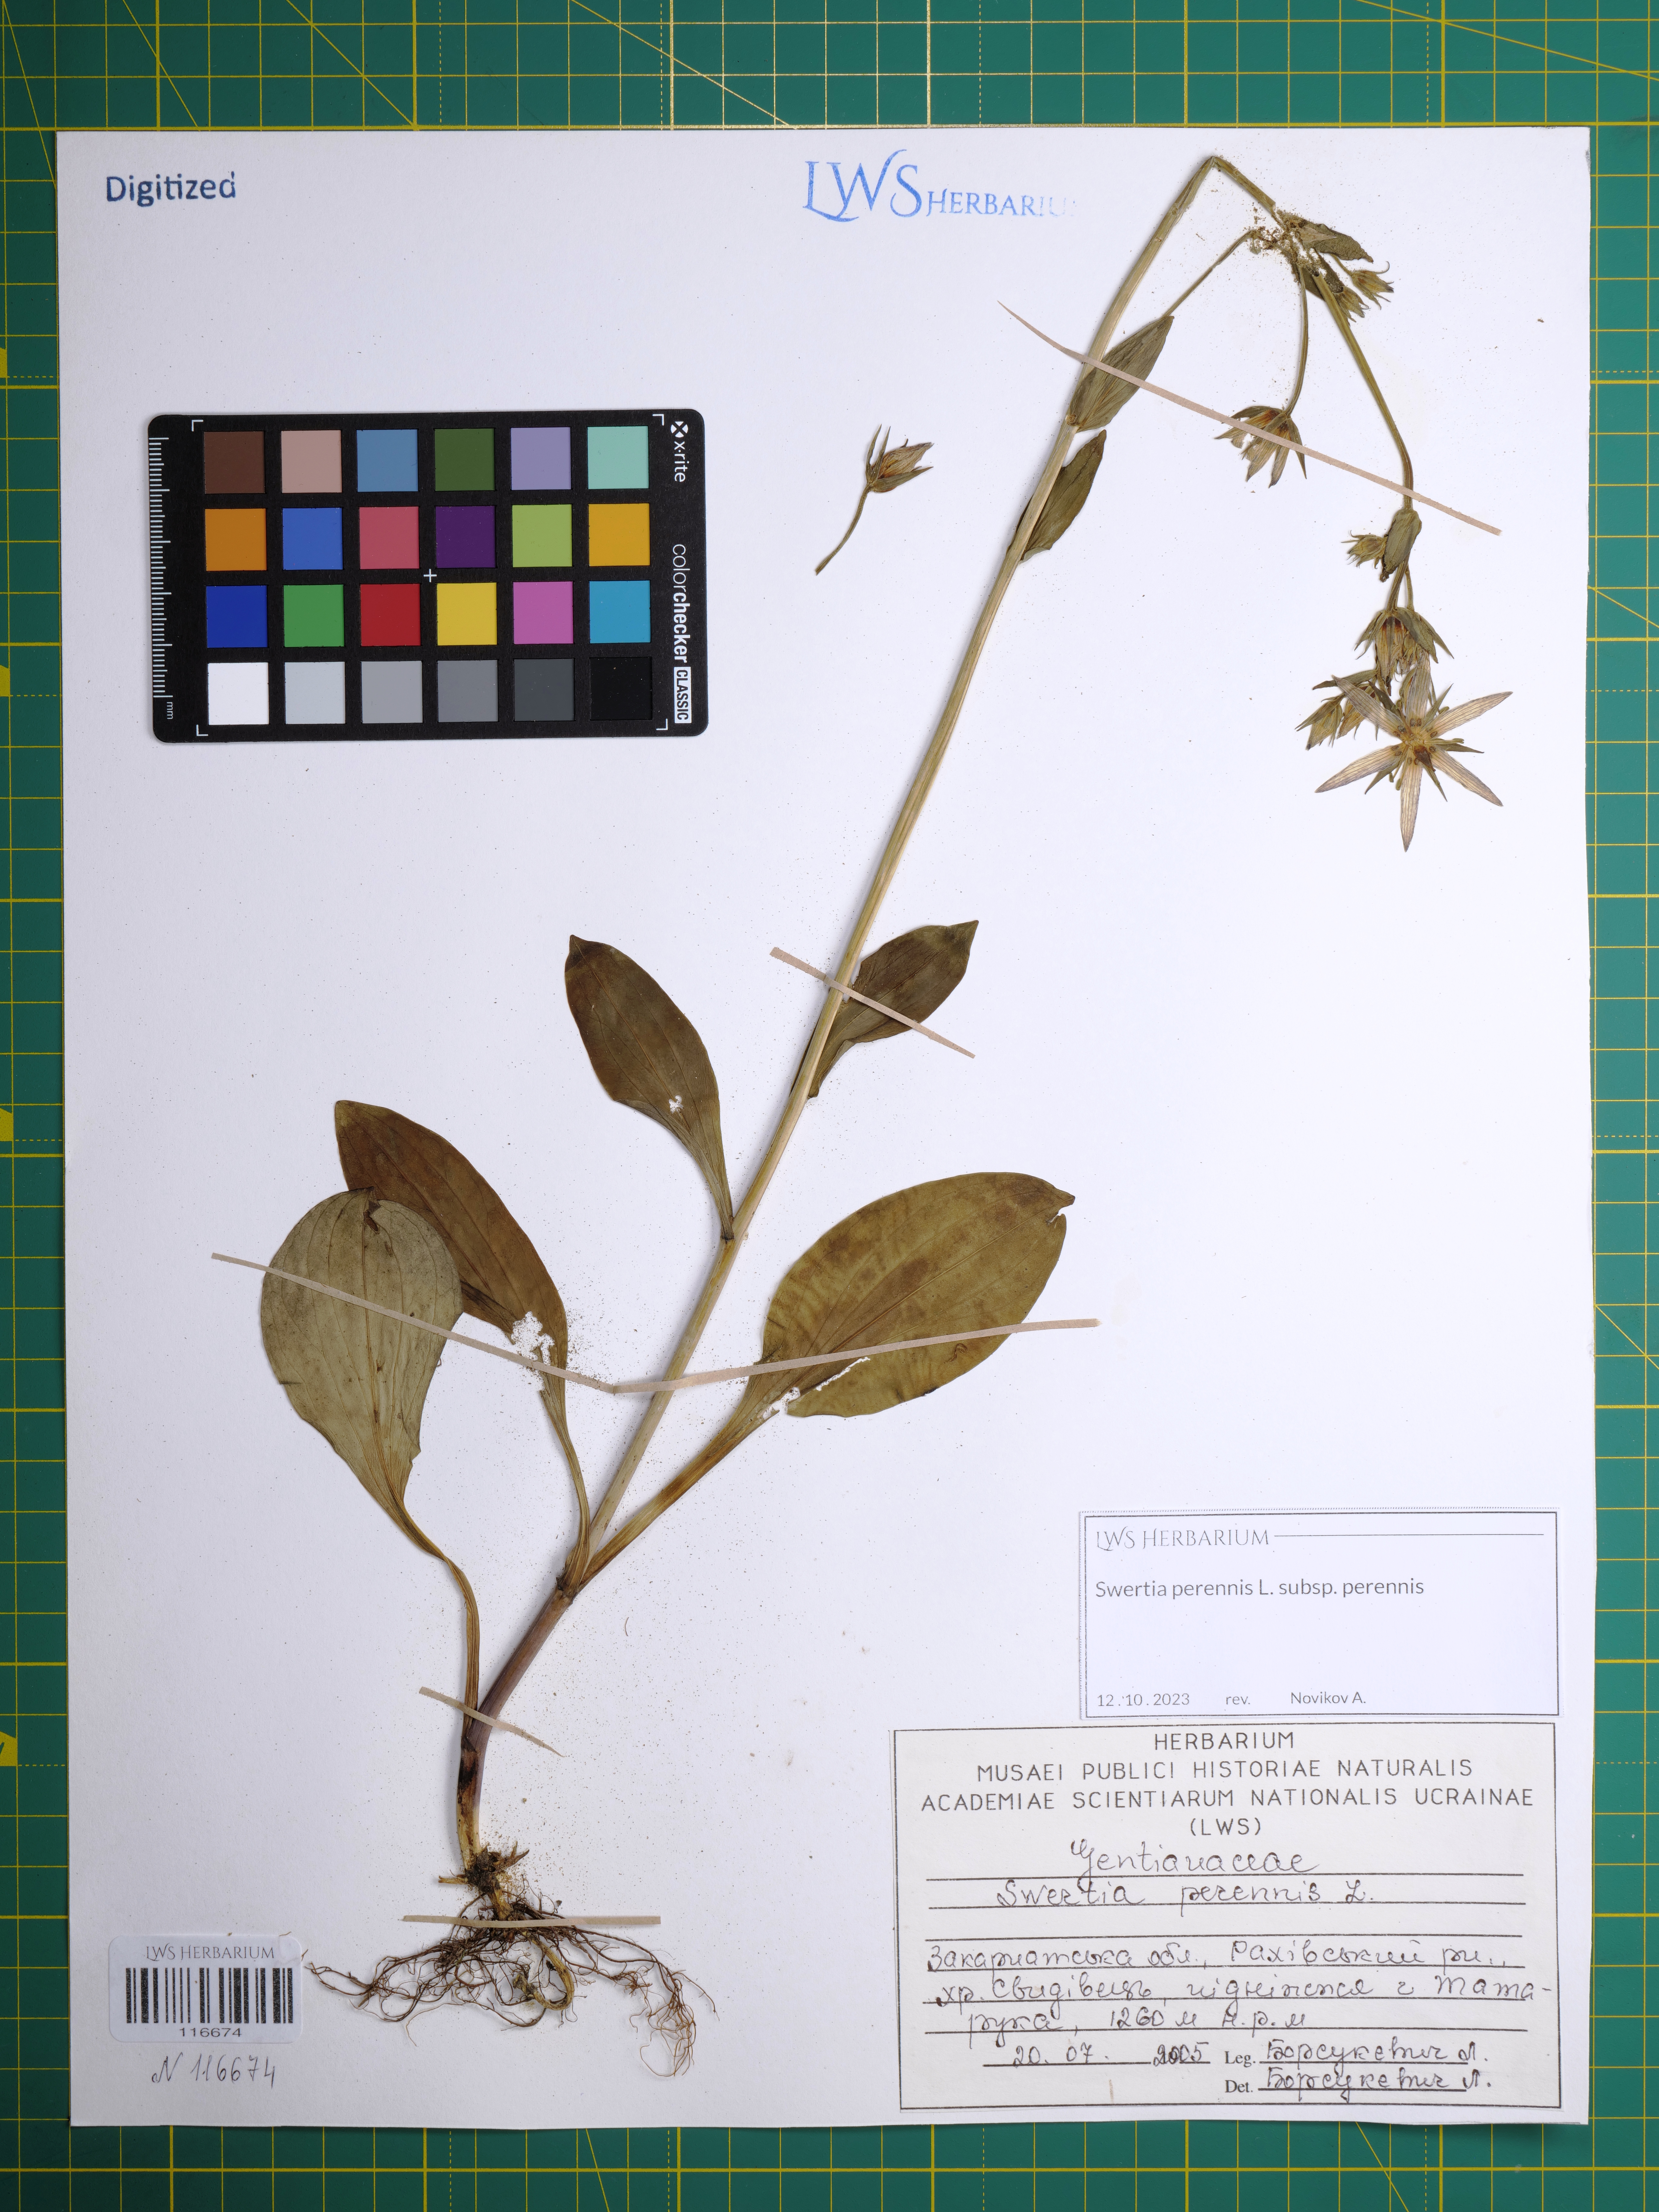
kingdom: Plantae
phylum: Tracheophyta
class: Magnoliopsida
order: Gentianales
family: Gentianaceae
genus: Swertia
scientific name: Swertia perennis
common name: Alpine bog swertia
